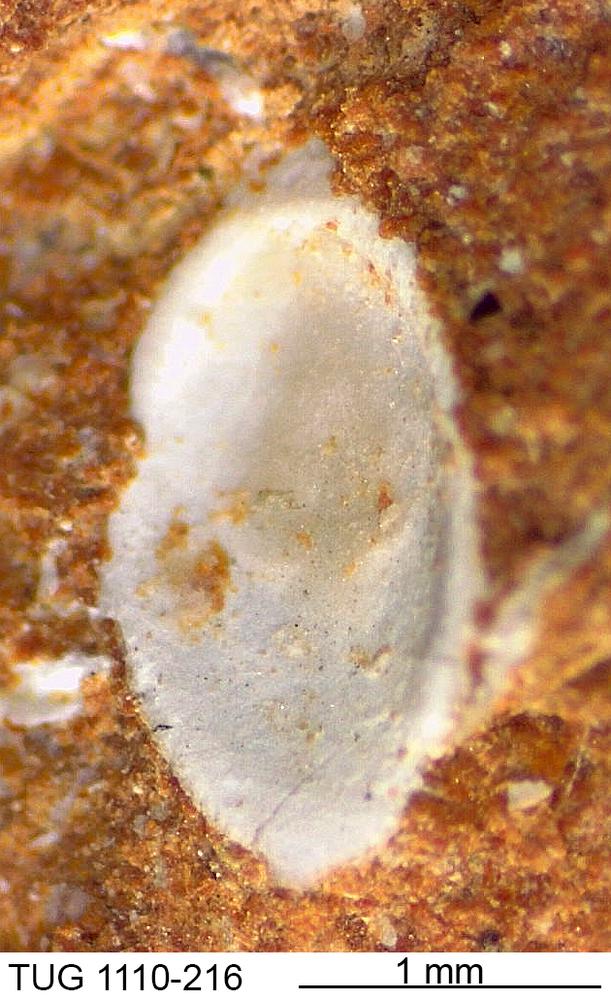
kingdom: Animalia
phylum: Brachiopoda
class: Craniata
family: Craniopsidae
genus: Pseudopholidops
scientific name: Pseudopholidops
